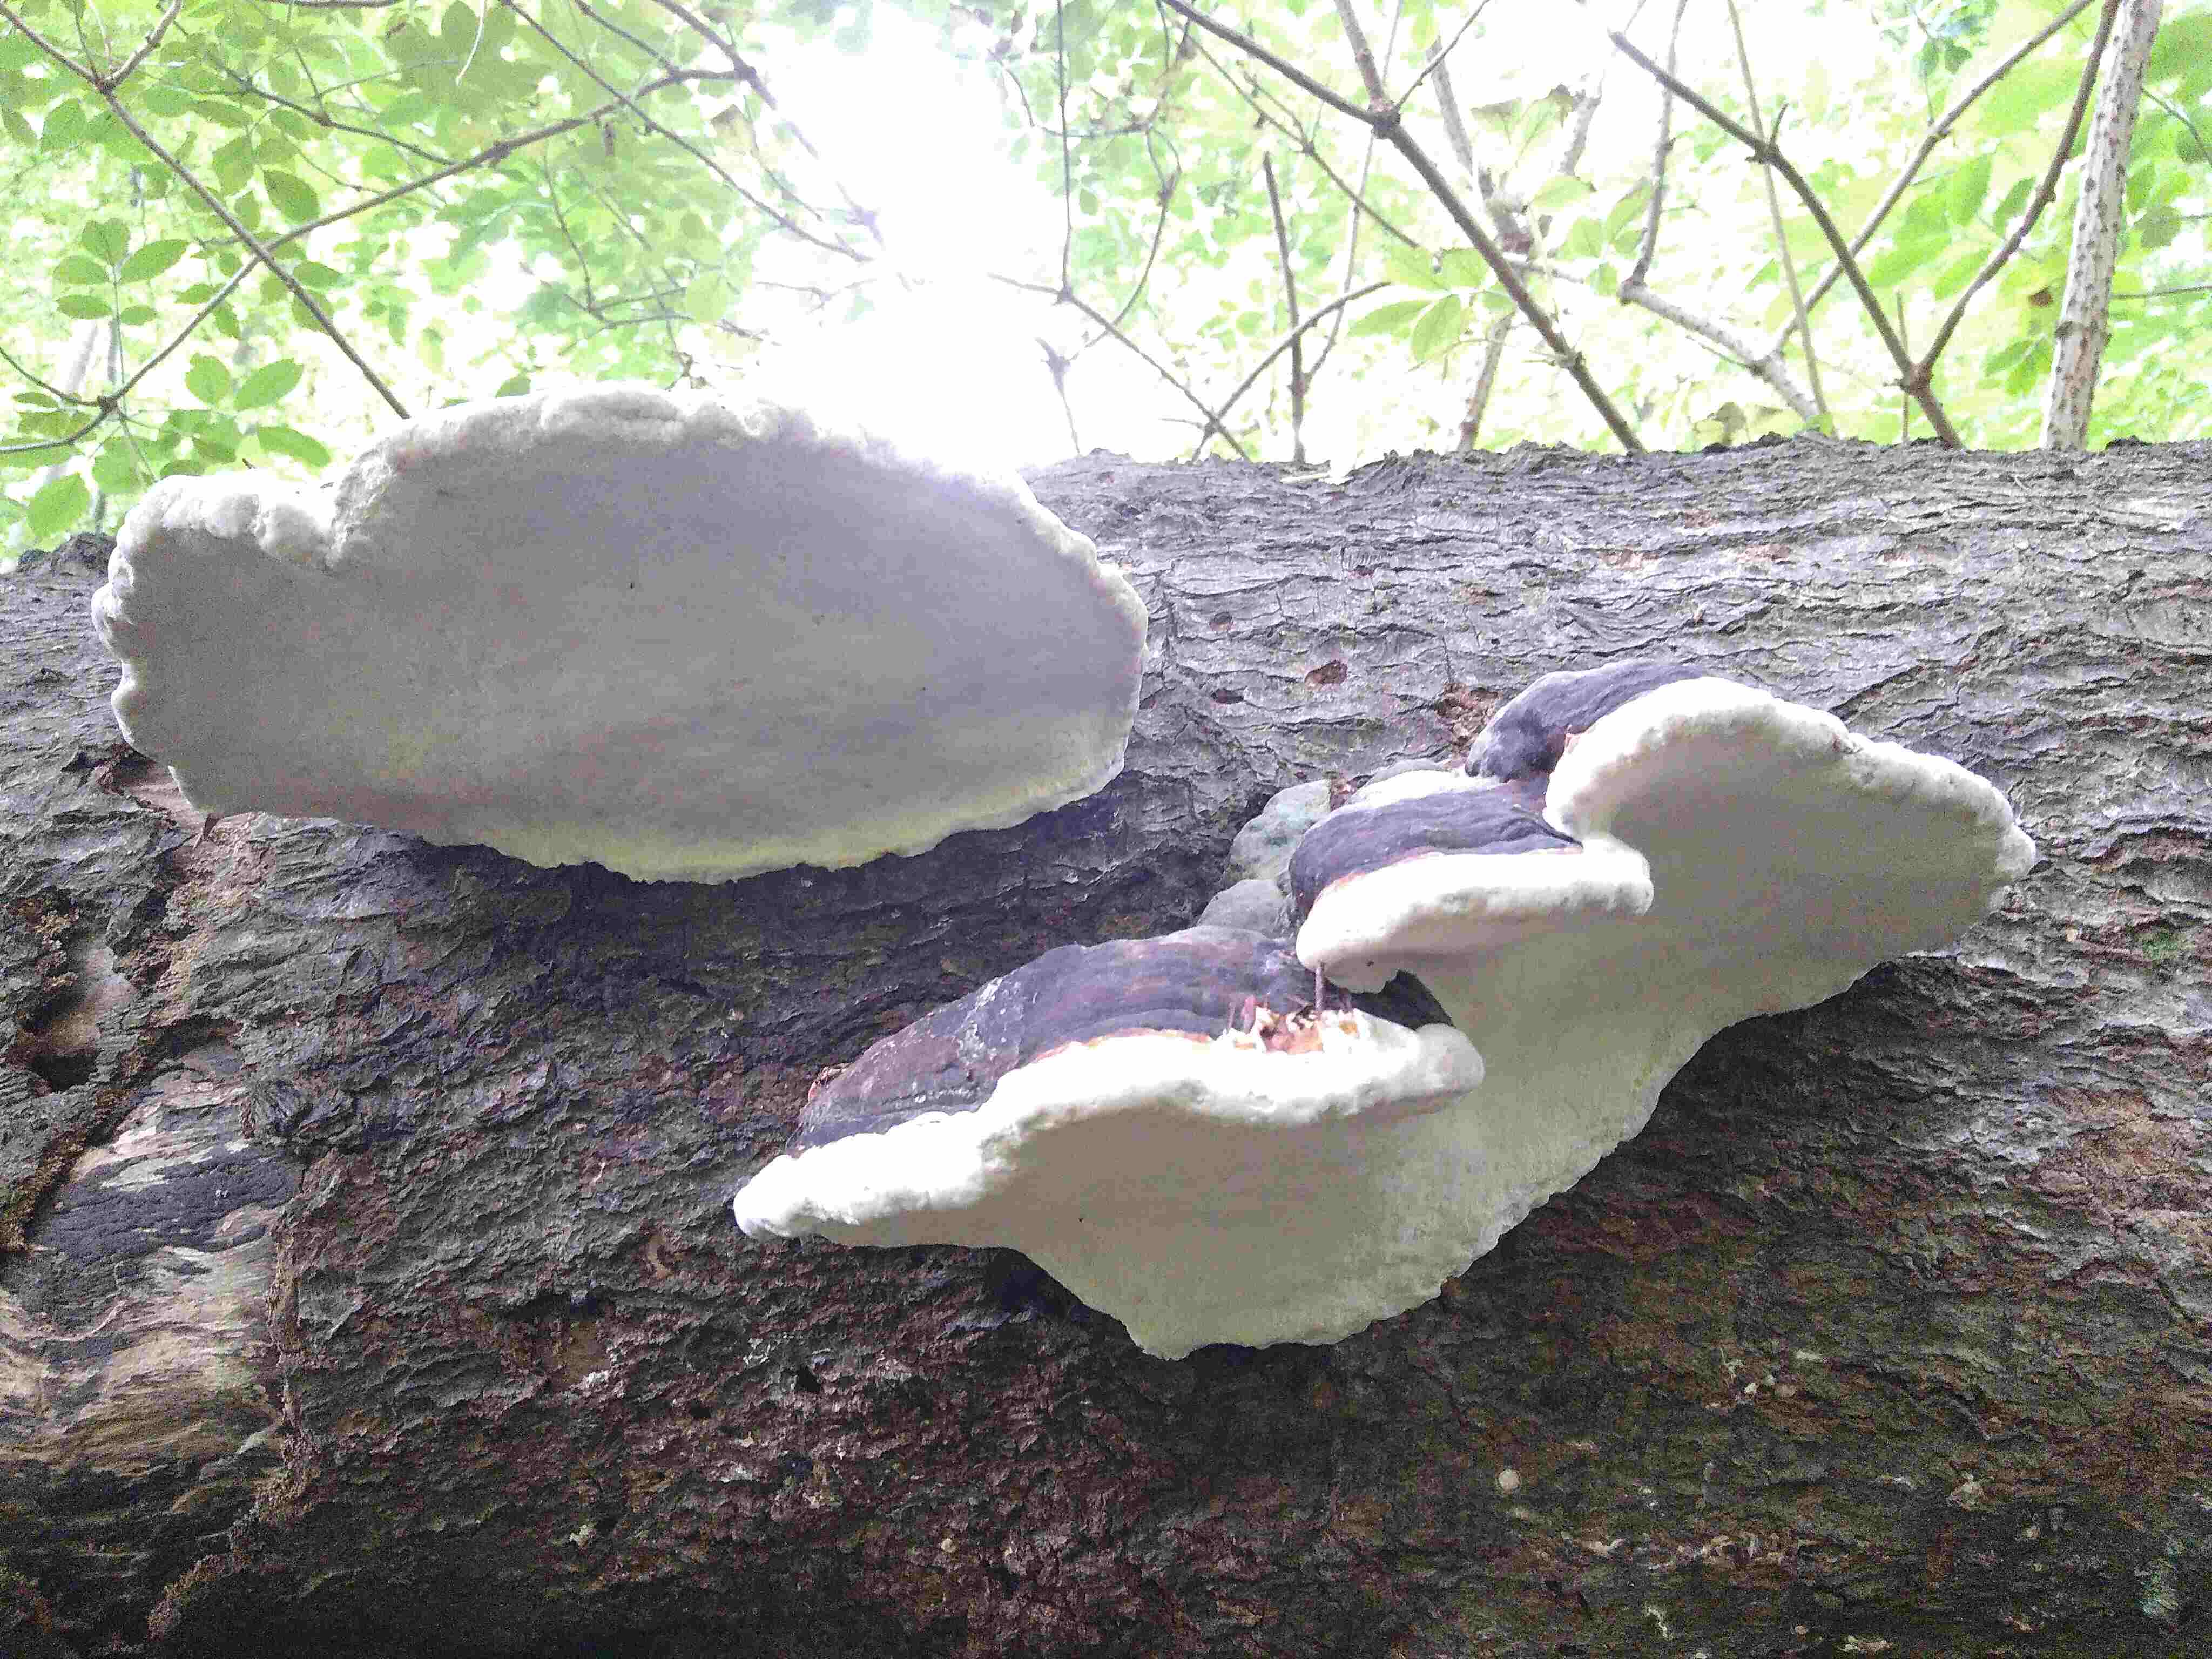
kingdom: Fungi
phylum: Basidiomycota
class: Agaricomycetes
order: Polyporales
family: Fomitopsidaceae
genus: Fomitopsis
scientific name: Fomitopsis pinicola
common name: randbæltet hovporesvamp
